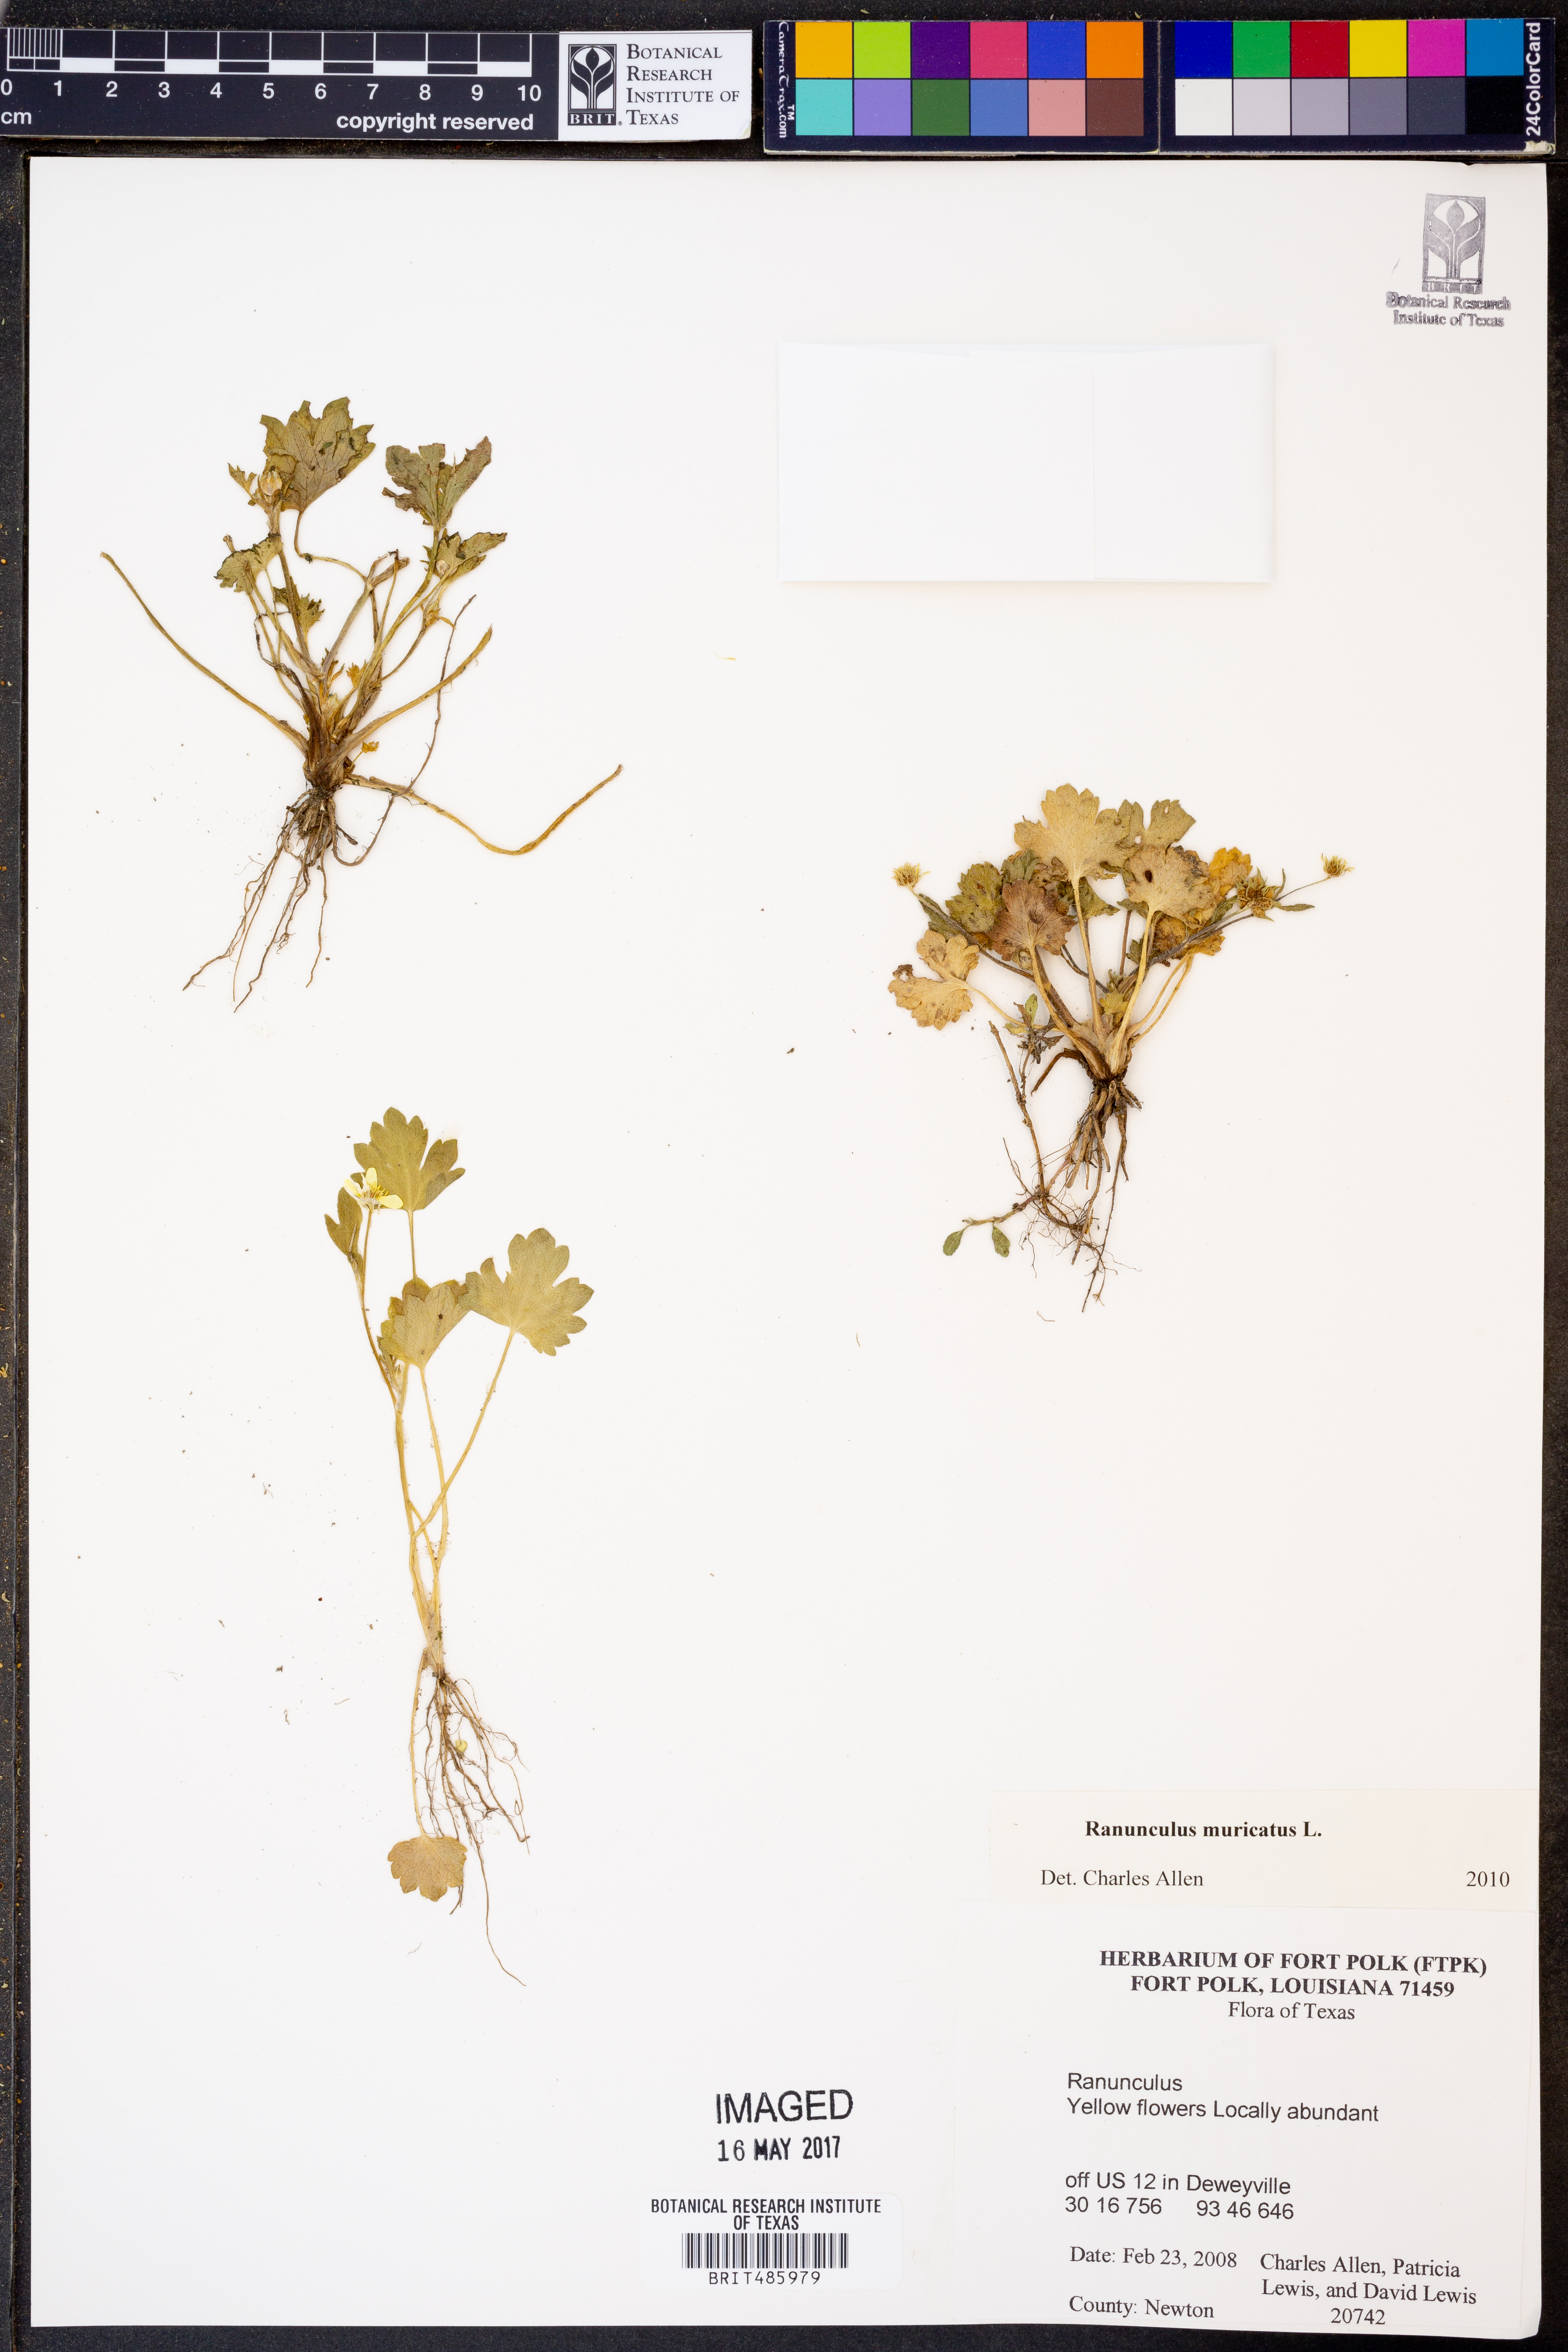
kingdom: Plantae
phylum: Tracheophyta
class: Magnoliopsida
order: Ranunculales
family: Ranunculaceae
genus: Ranunculus
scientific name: Ranunculus muricatus
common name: Rough-fruited buttercup
